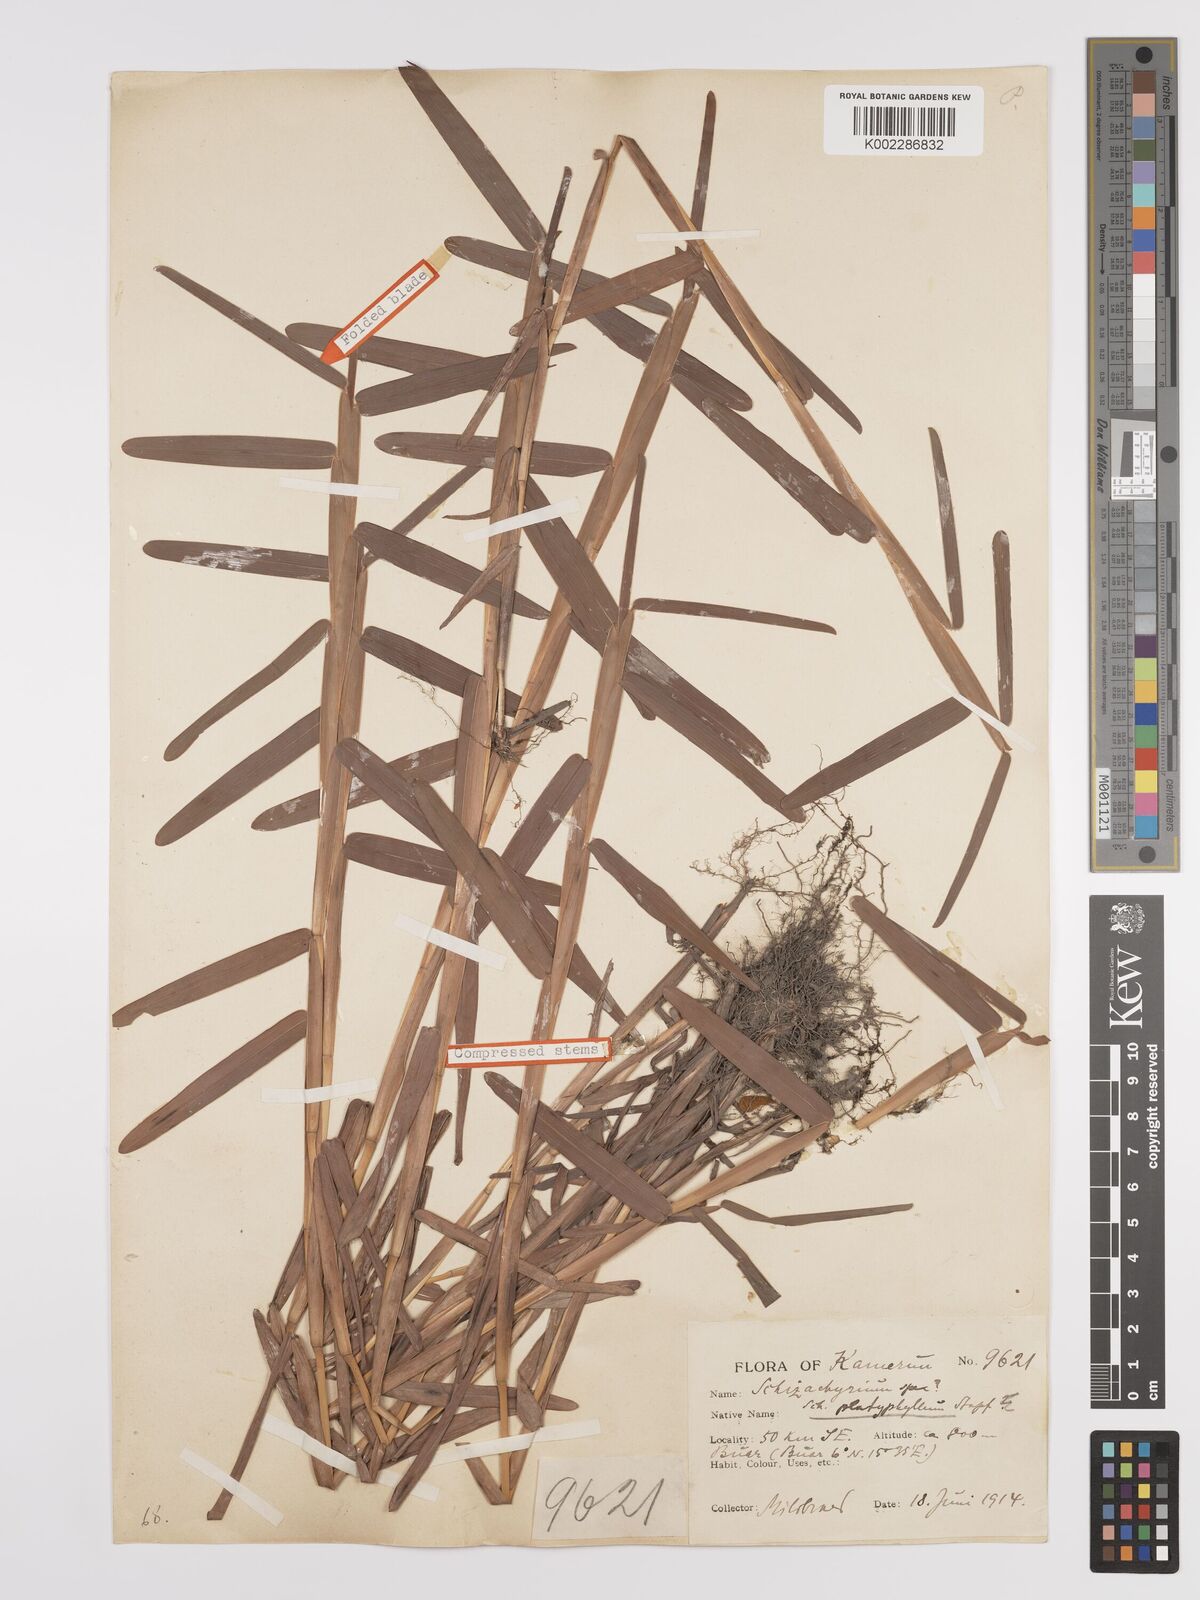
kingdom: Plantae
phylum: Tracheophyta
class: Liliopsida
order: Poales
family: Poaceae
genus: Schizachyrium
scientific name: Schizachyrium platyphyllum
